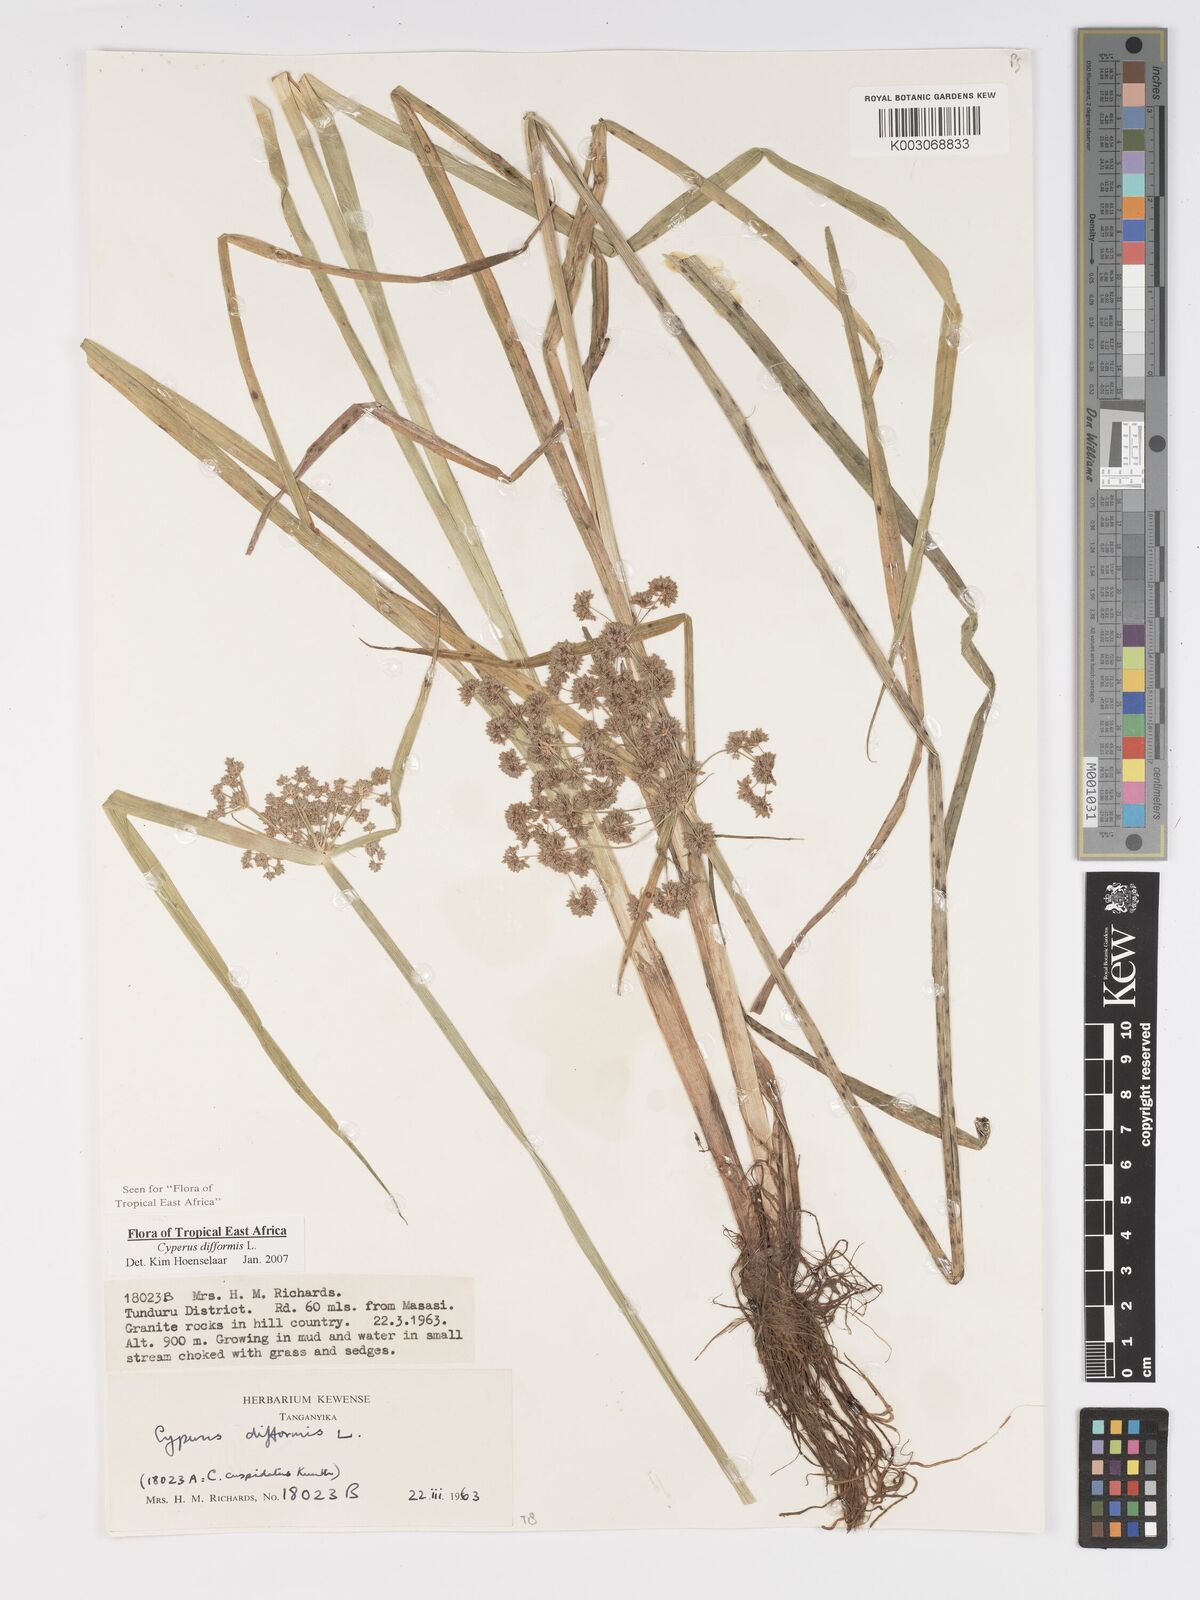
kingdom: Plantae
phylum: Tracheophyta
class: Liliopsida
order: Poales
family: Cyperaceae
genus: Cyperus
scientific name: Cyperus difformis
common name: Variable flatsedge
